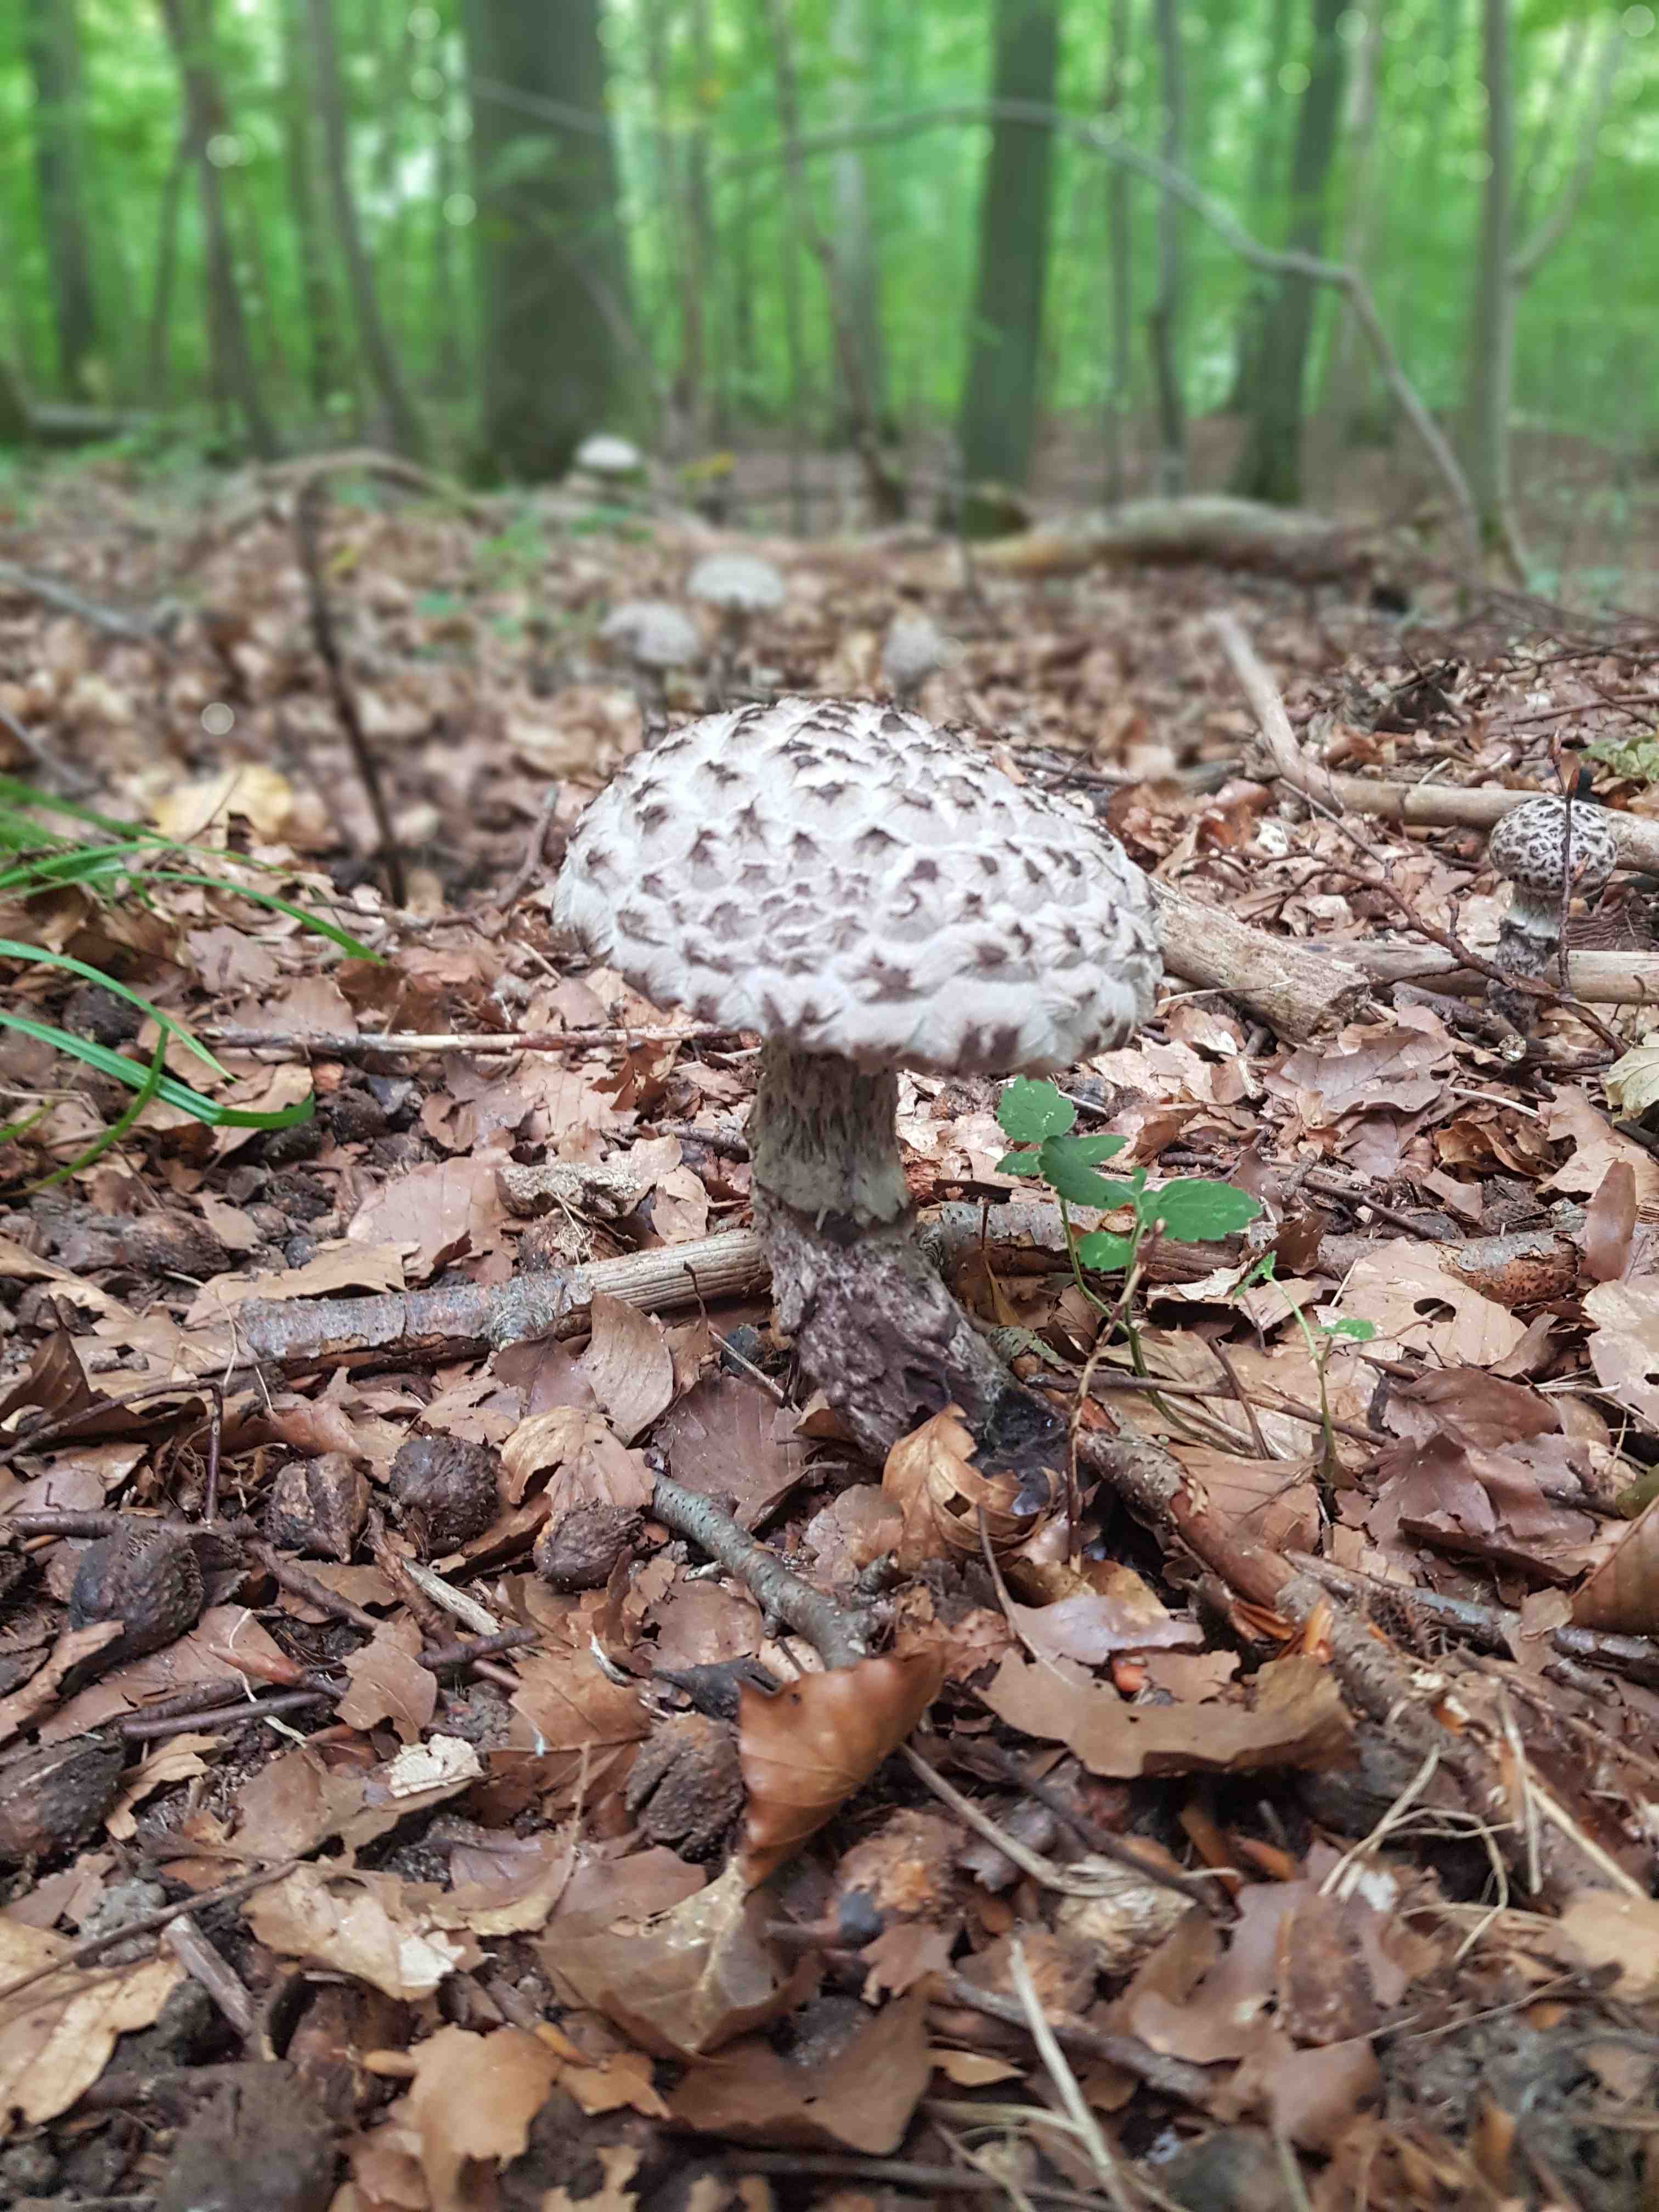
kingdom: Fungi
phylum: Basidiomycota
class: Agaricomycetes
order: Boletales
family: Boletaceae
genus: Strobilomyces
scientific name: Strobilomyces strobilaceus
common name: koglerørhat
